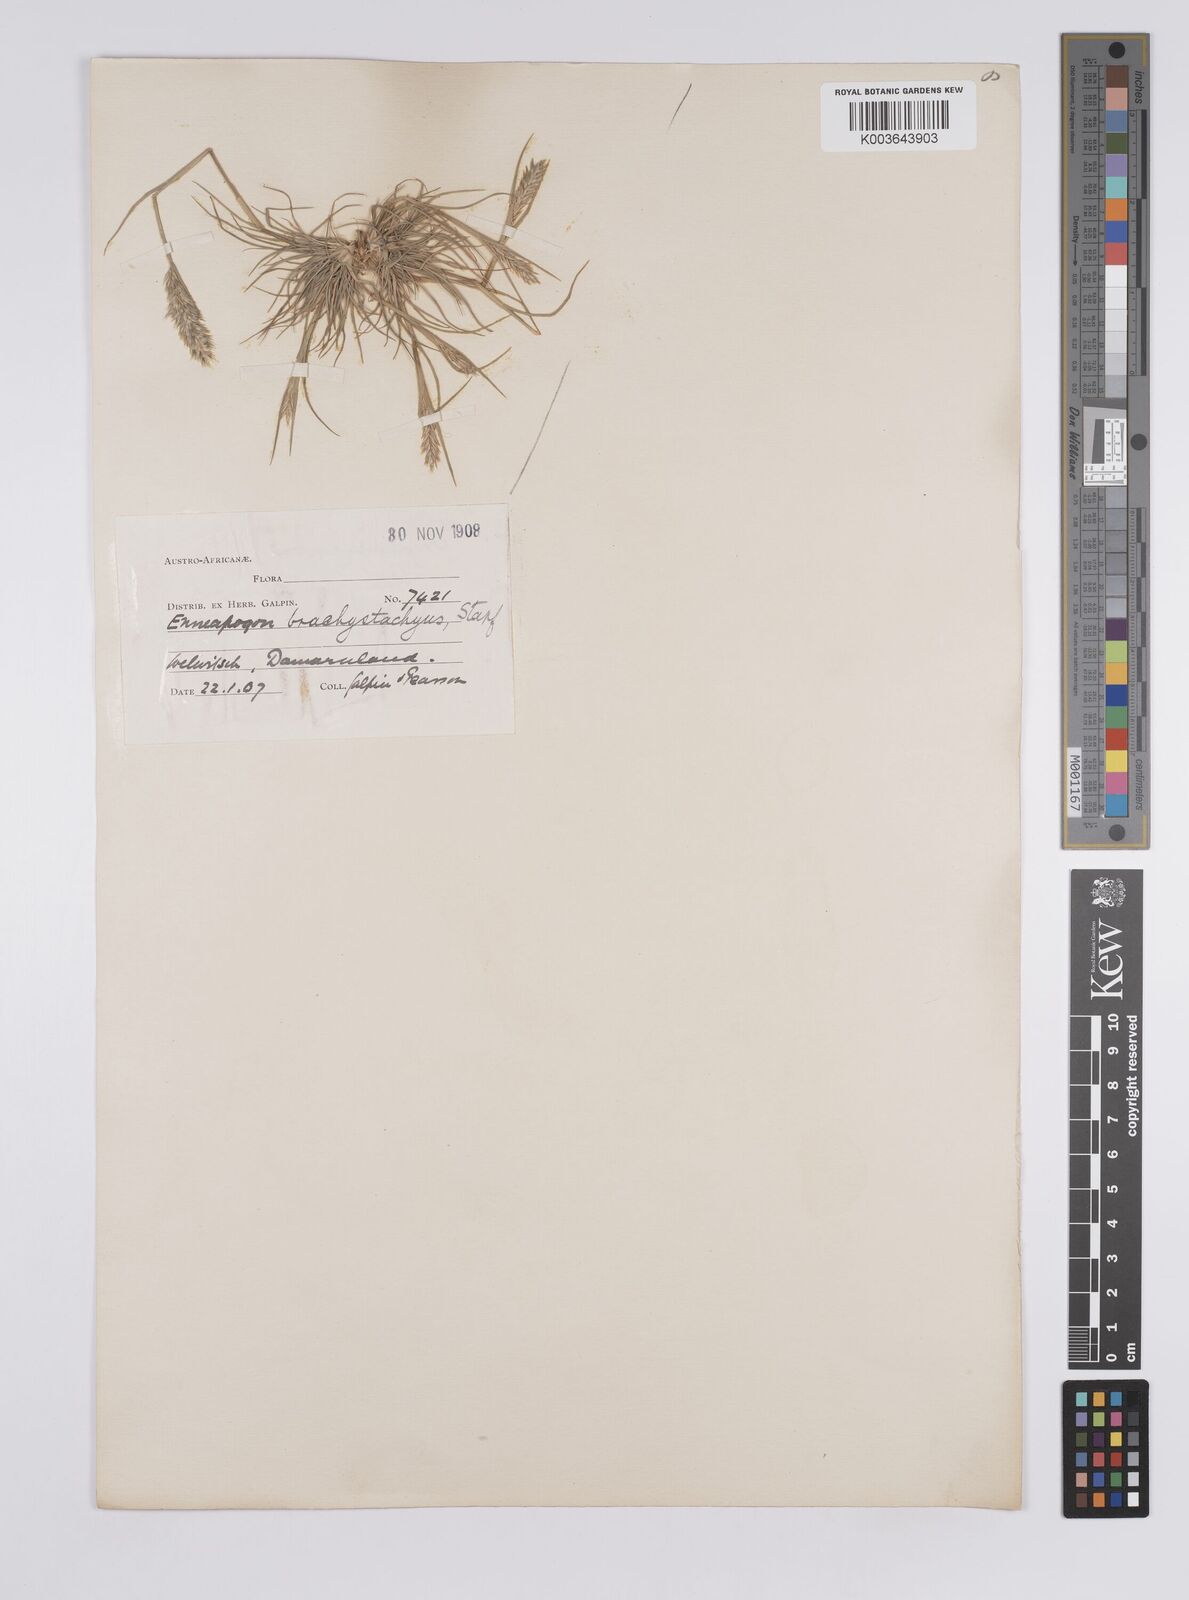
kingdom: Plantae
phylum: Tracheophyta
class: Liliopsida
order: Poales
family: Poaceae
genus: Enneapogon
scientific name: Enneapogon desvauxii
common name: Feather pappus grass
